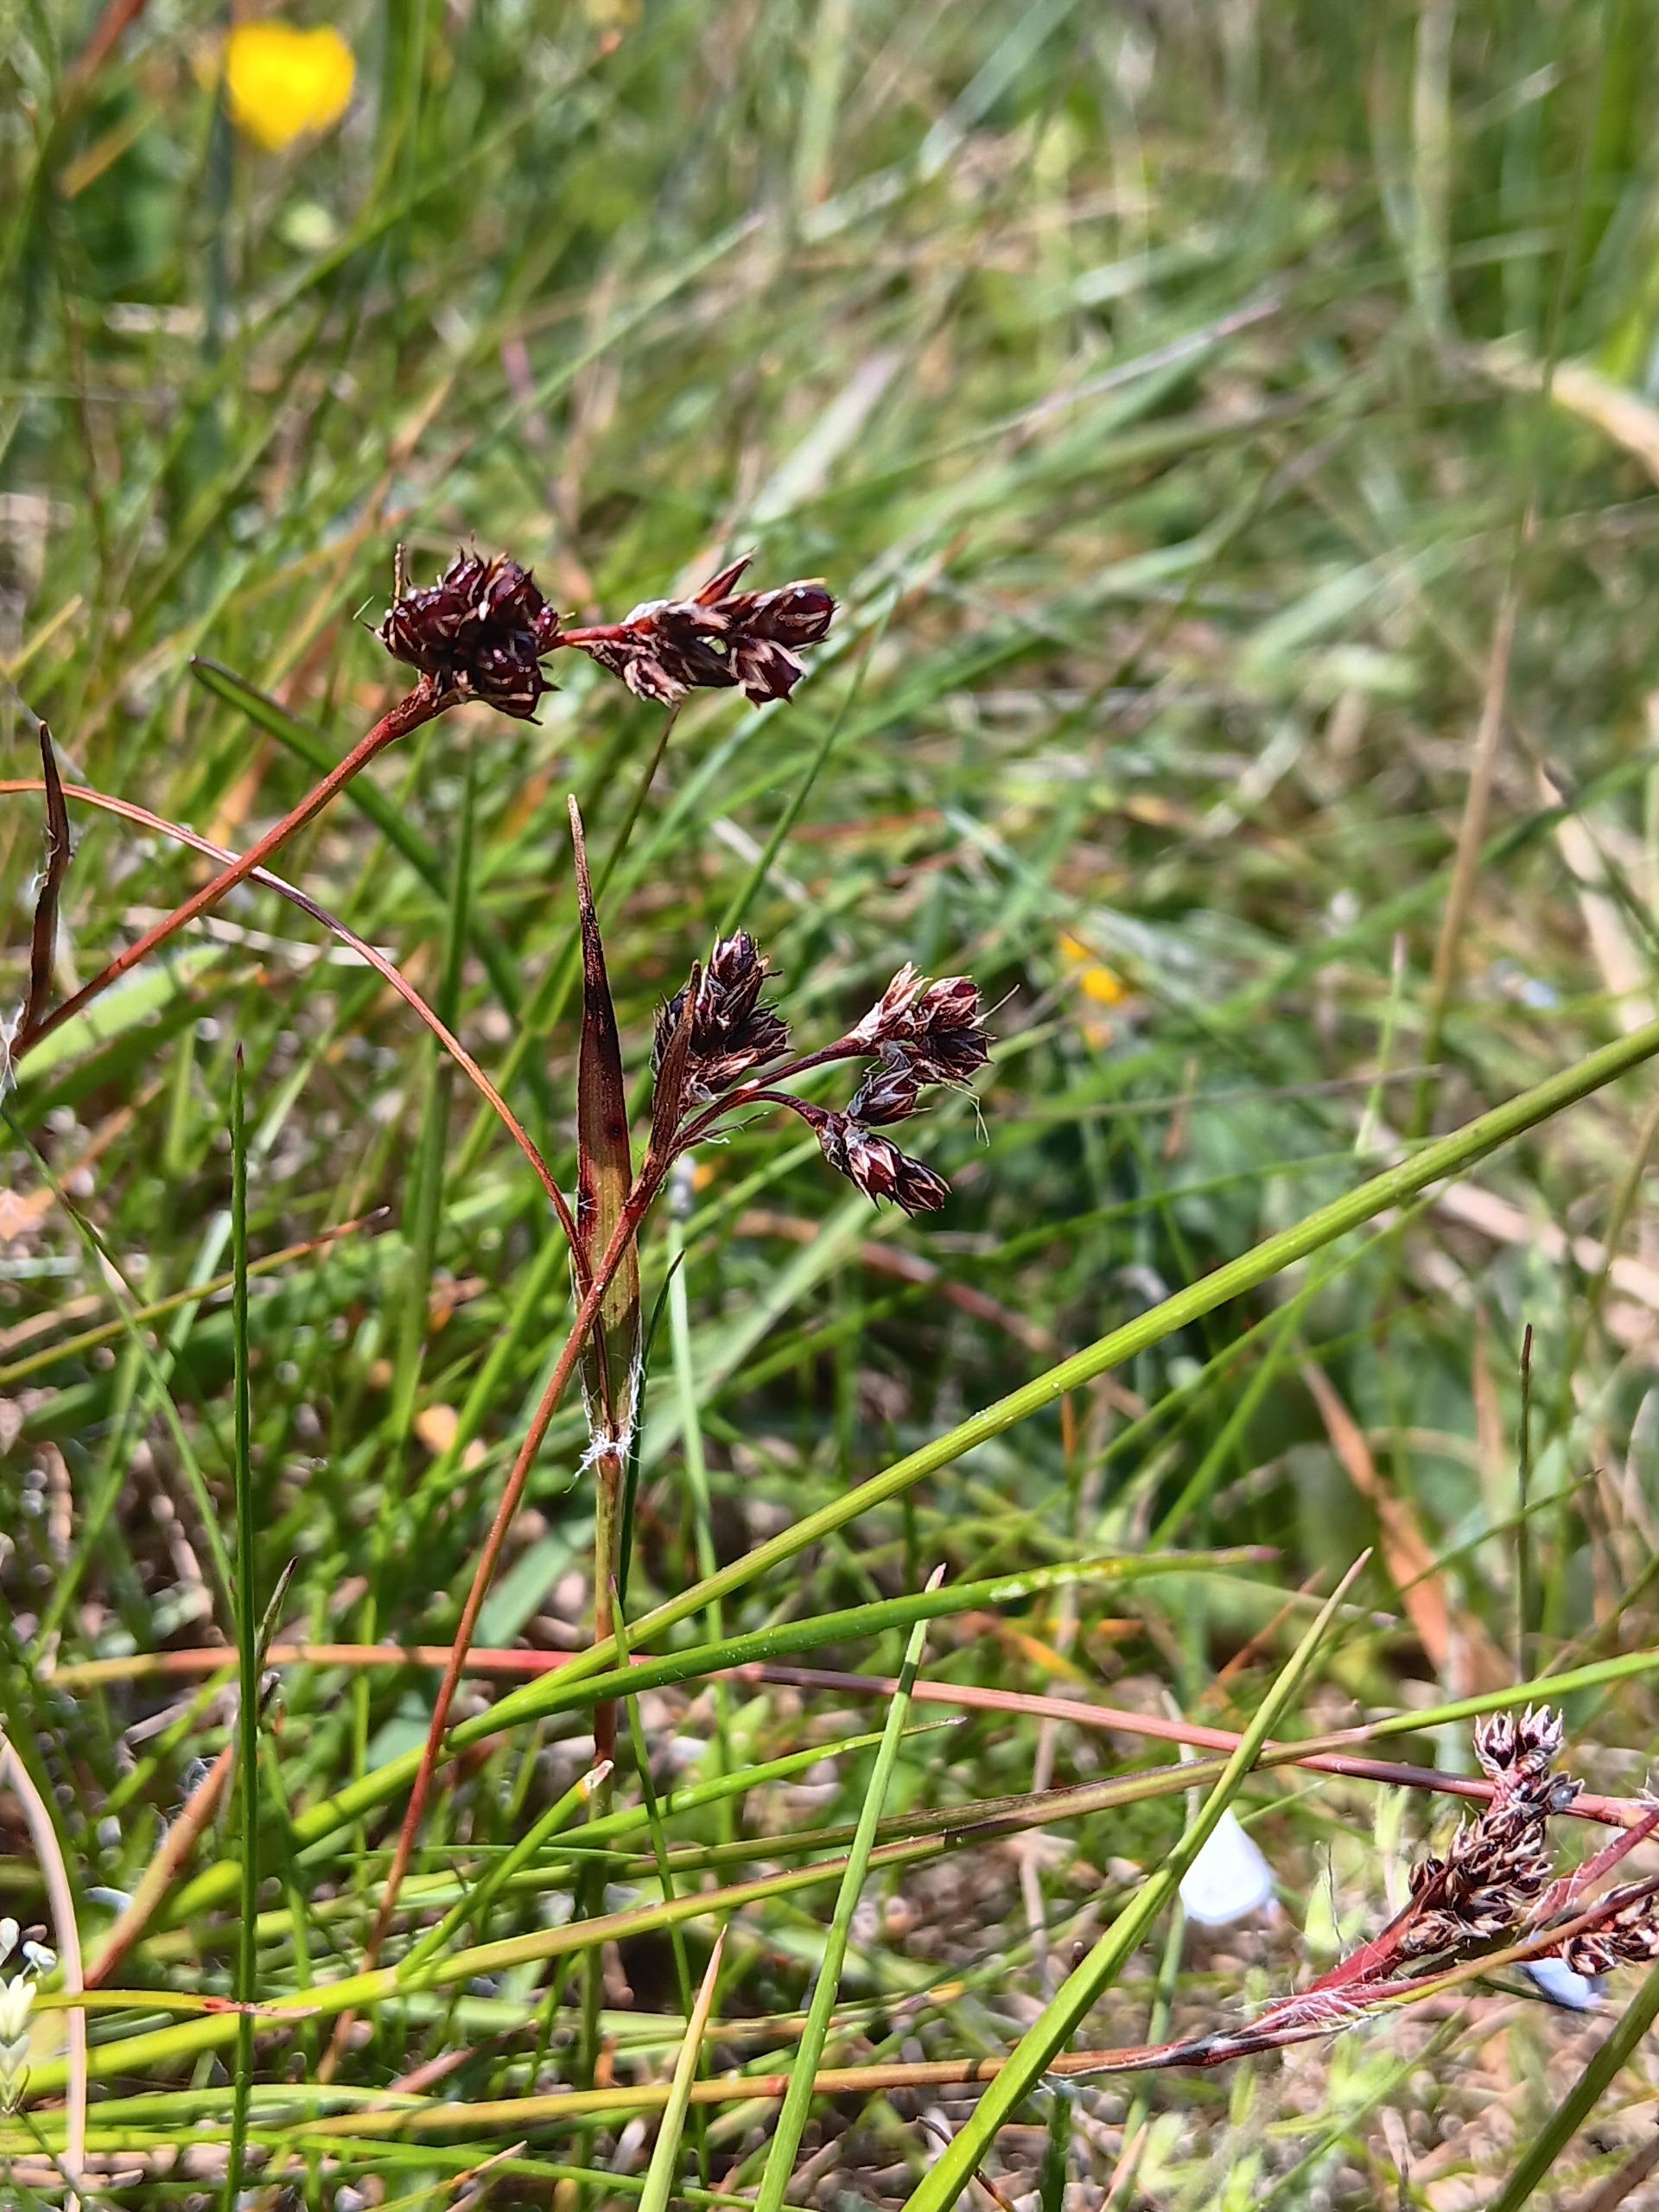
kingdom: Plantae
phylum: Tracheophyta
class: Liliopsida
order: Poales
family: Juncaceae
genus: Luzula
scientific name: Luzula campestris
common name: Mark-frytle
